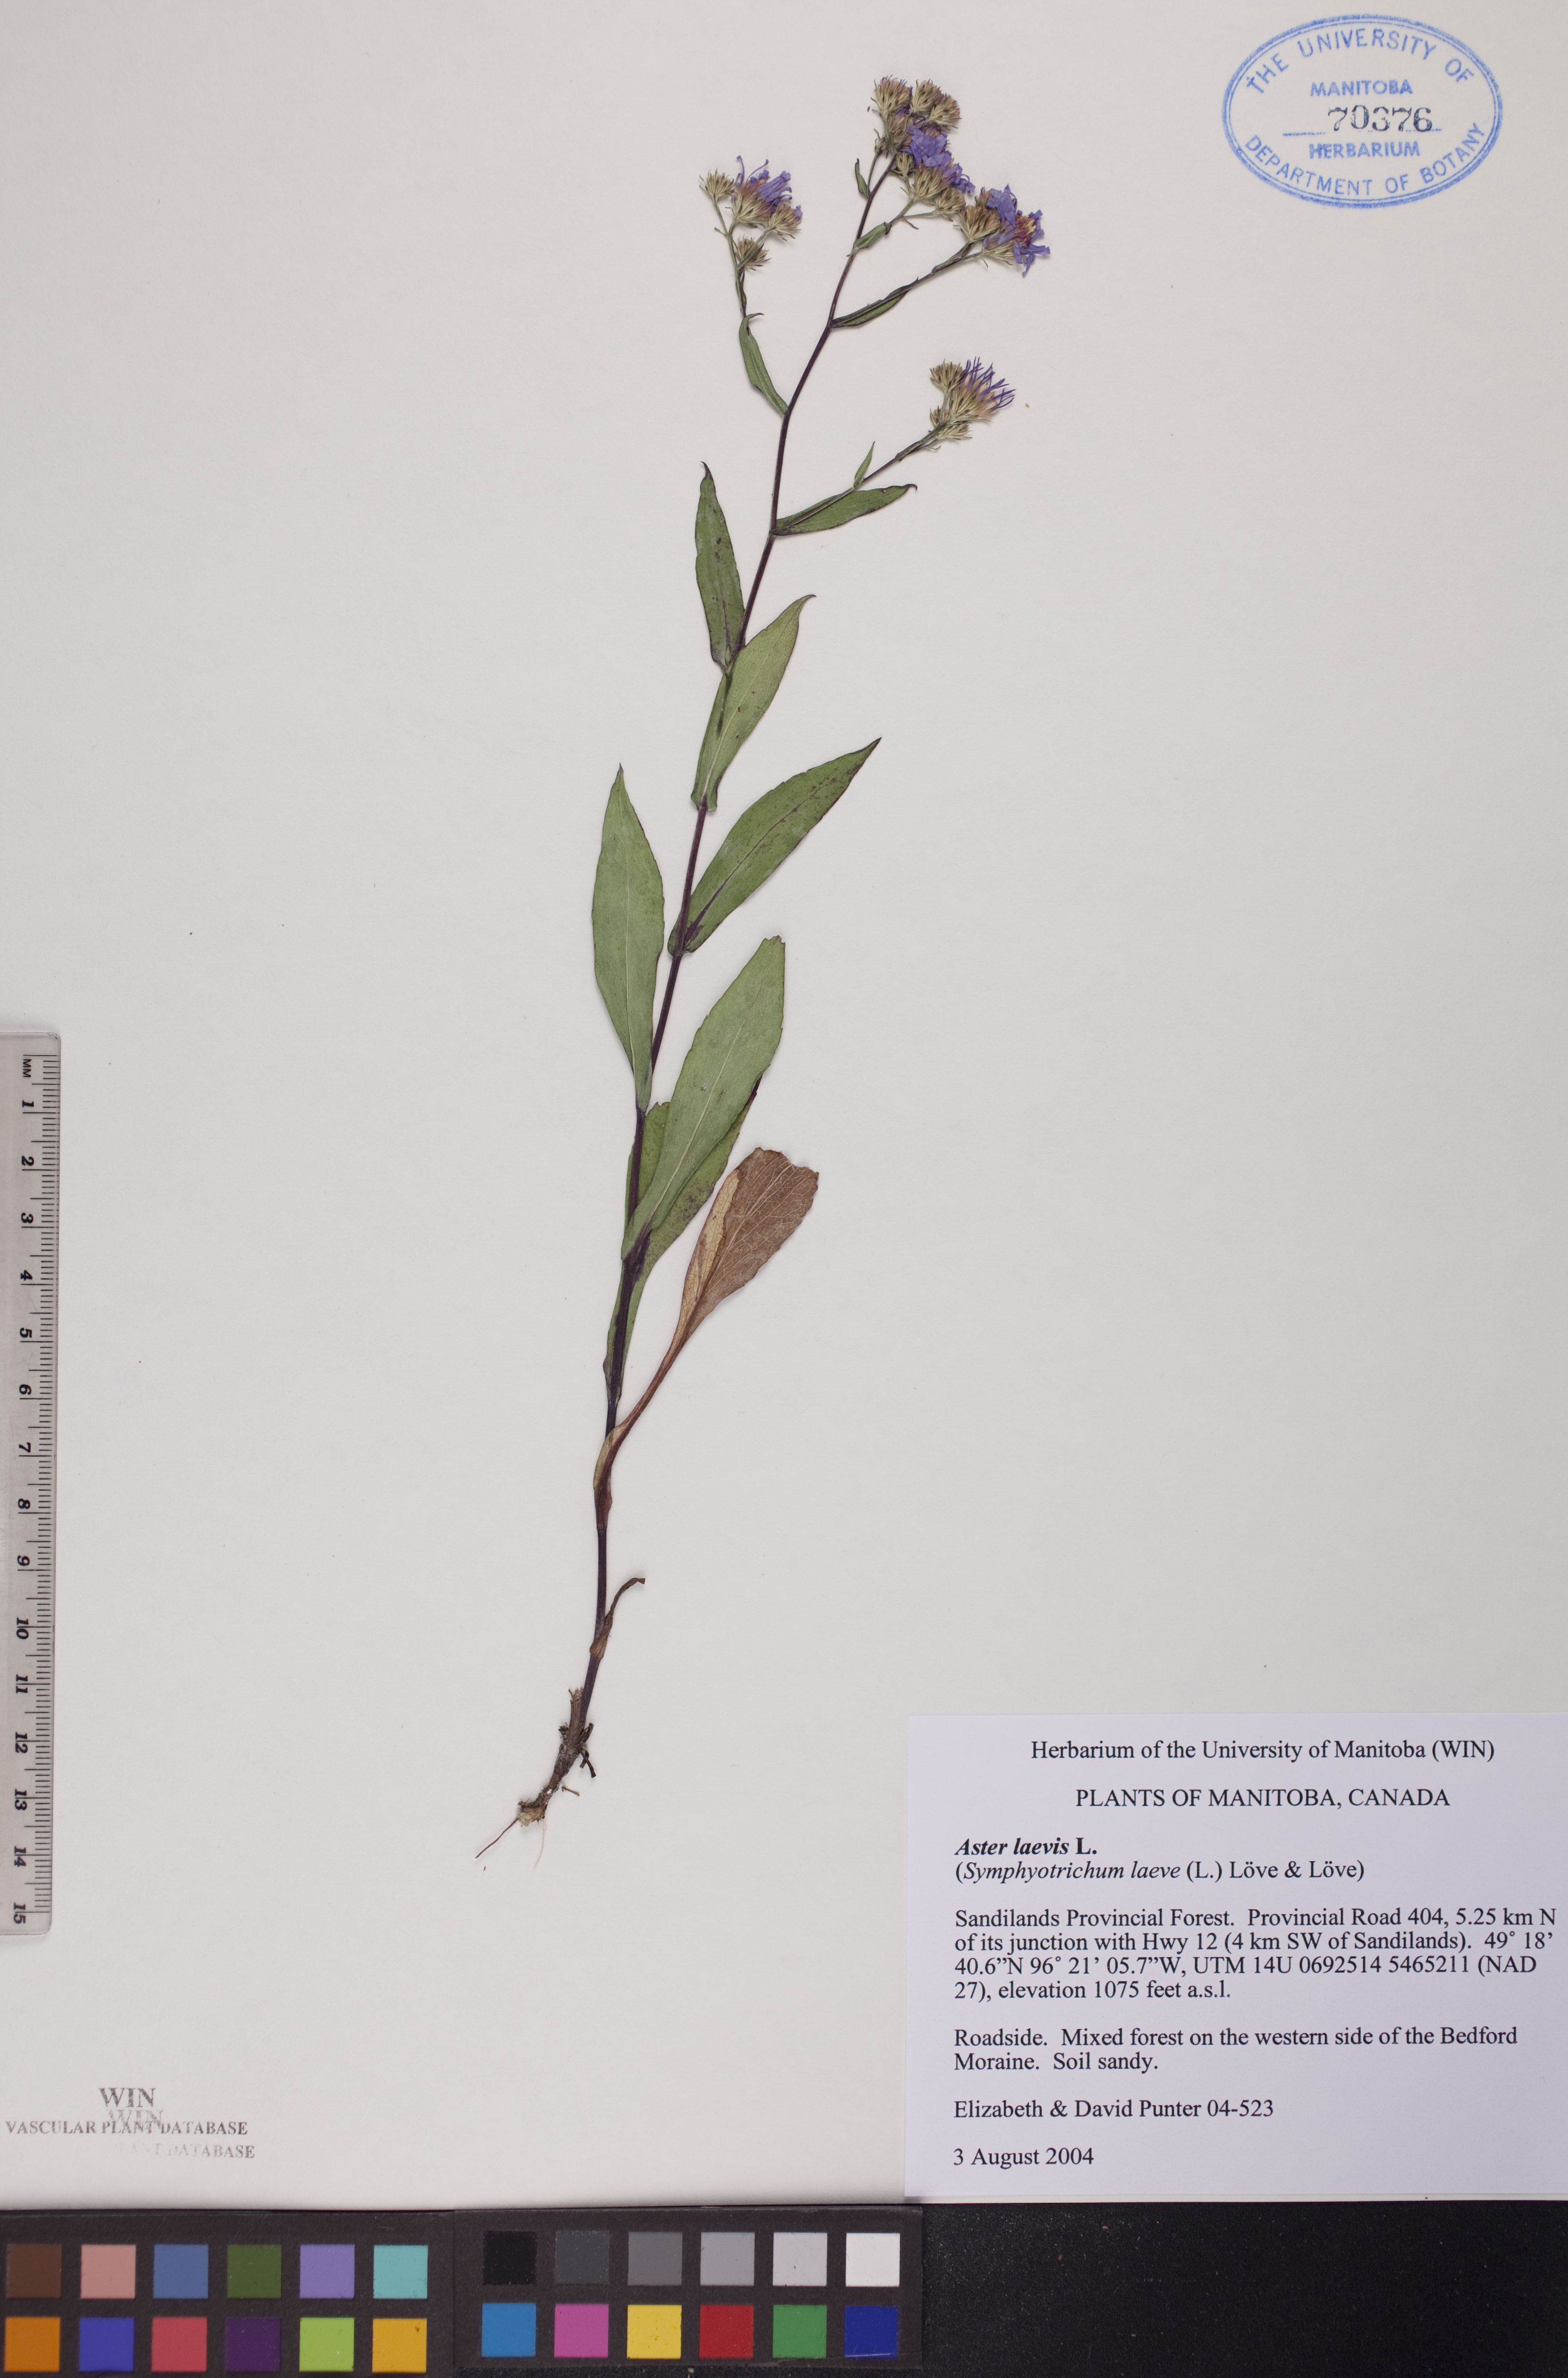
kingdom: Plantae
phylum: Tracheophyta
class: Magnoliopsida
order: Asterales
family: Asteraceae
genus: Symphyotrichum
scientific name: Symphyotrichum laeve
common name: Glaucous aster
